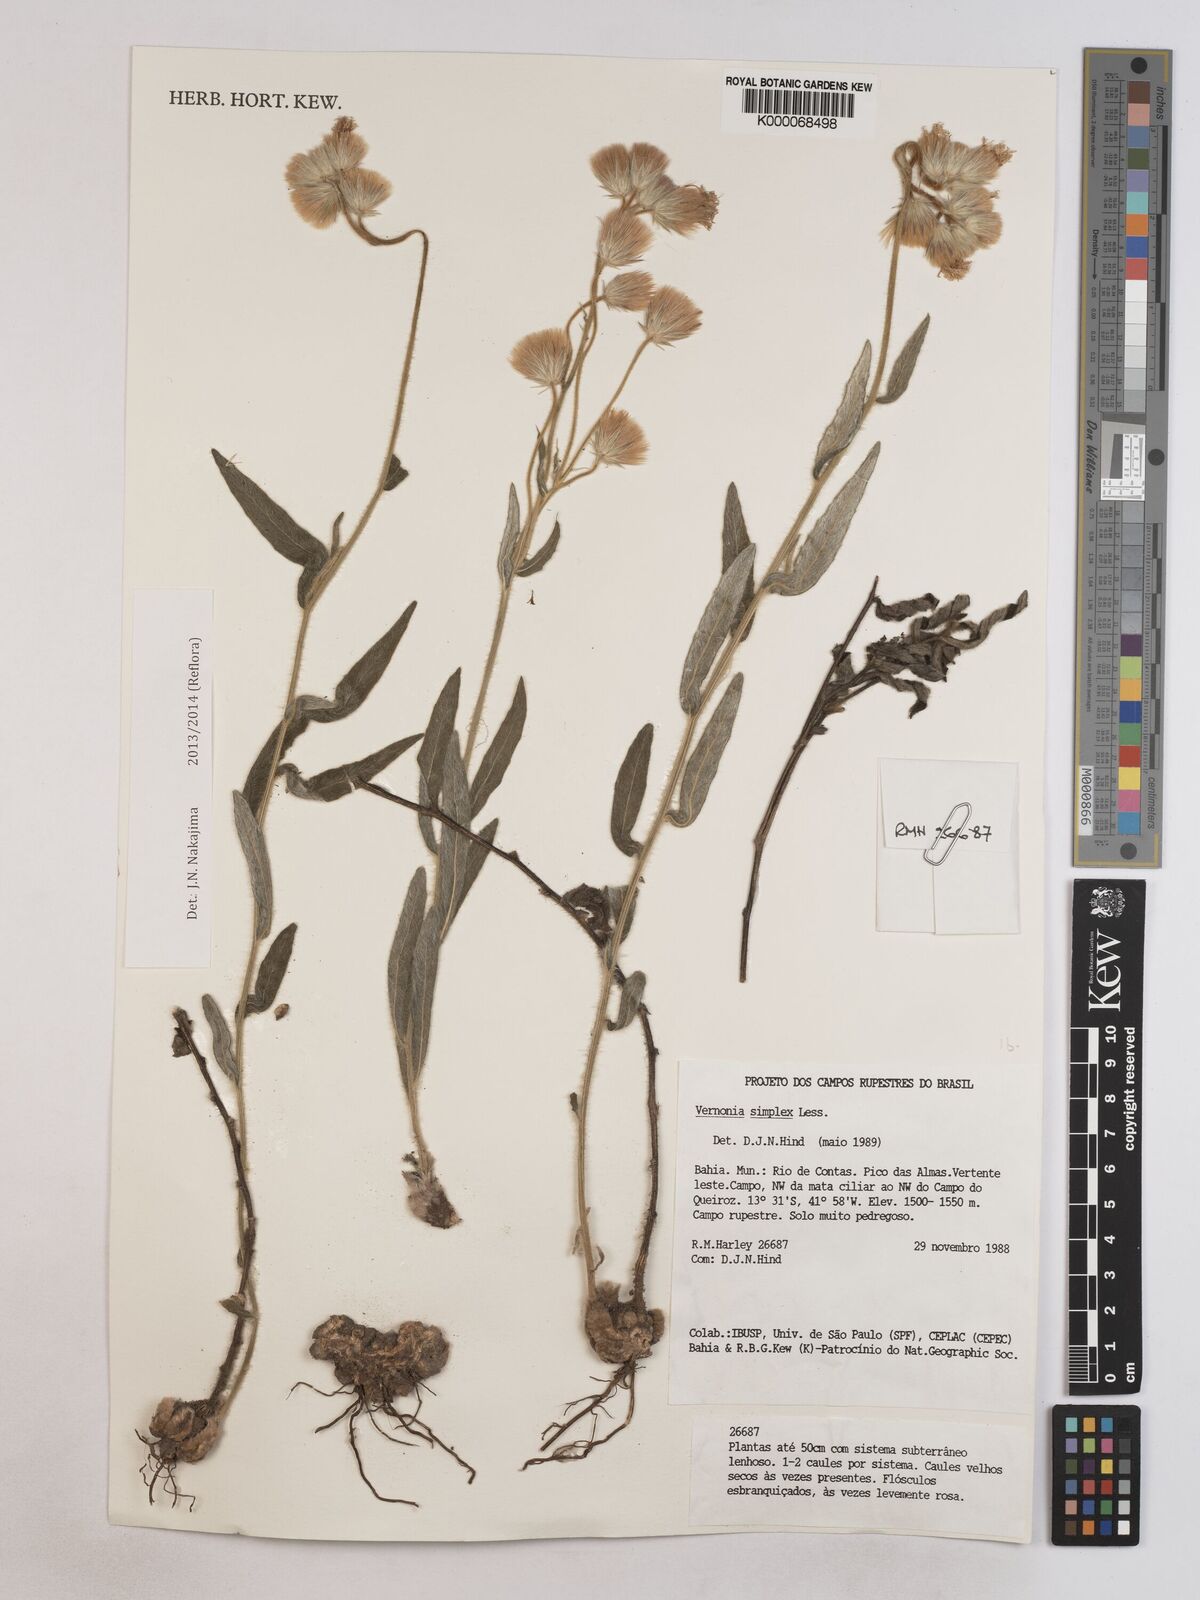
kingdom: Plantae
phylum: Tracheophyta
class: Magnoliopsida
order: Asterales
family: Asteraceae
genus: Chrysolaena
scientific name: Chrysolaena simplex
